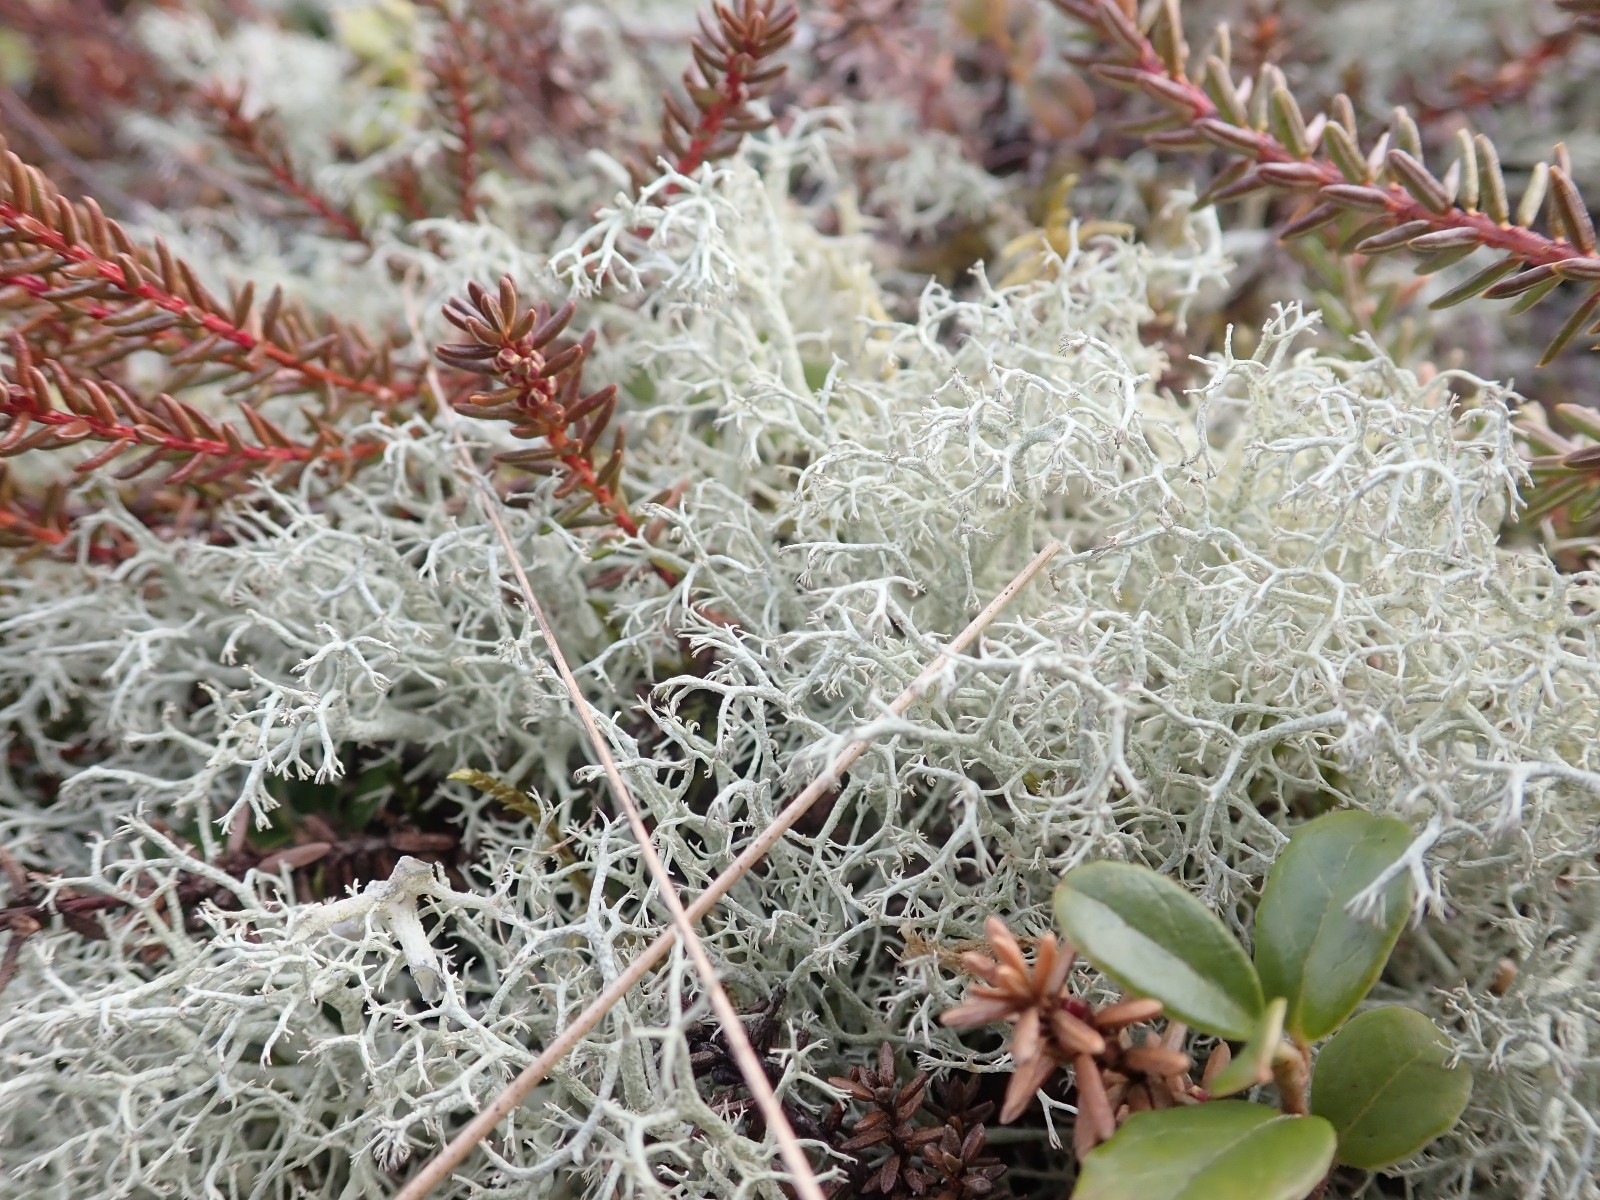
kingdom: Fungi
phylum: Ascomycota
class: Lecanoromycetes
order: Lecanorales
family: Cladoniaceae
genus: Cladonia
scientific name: Cladonia portentosa
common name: hede-rensdyrlav
